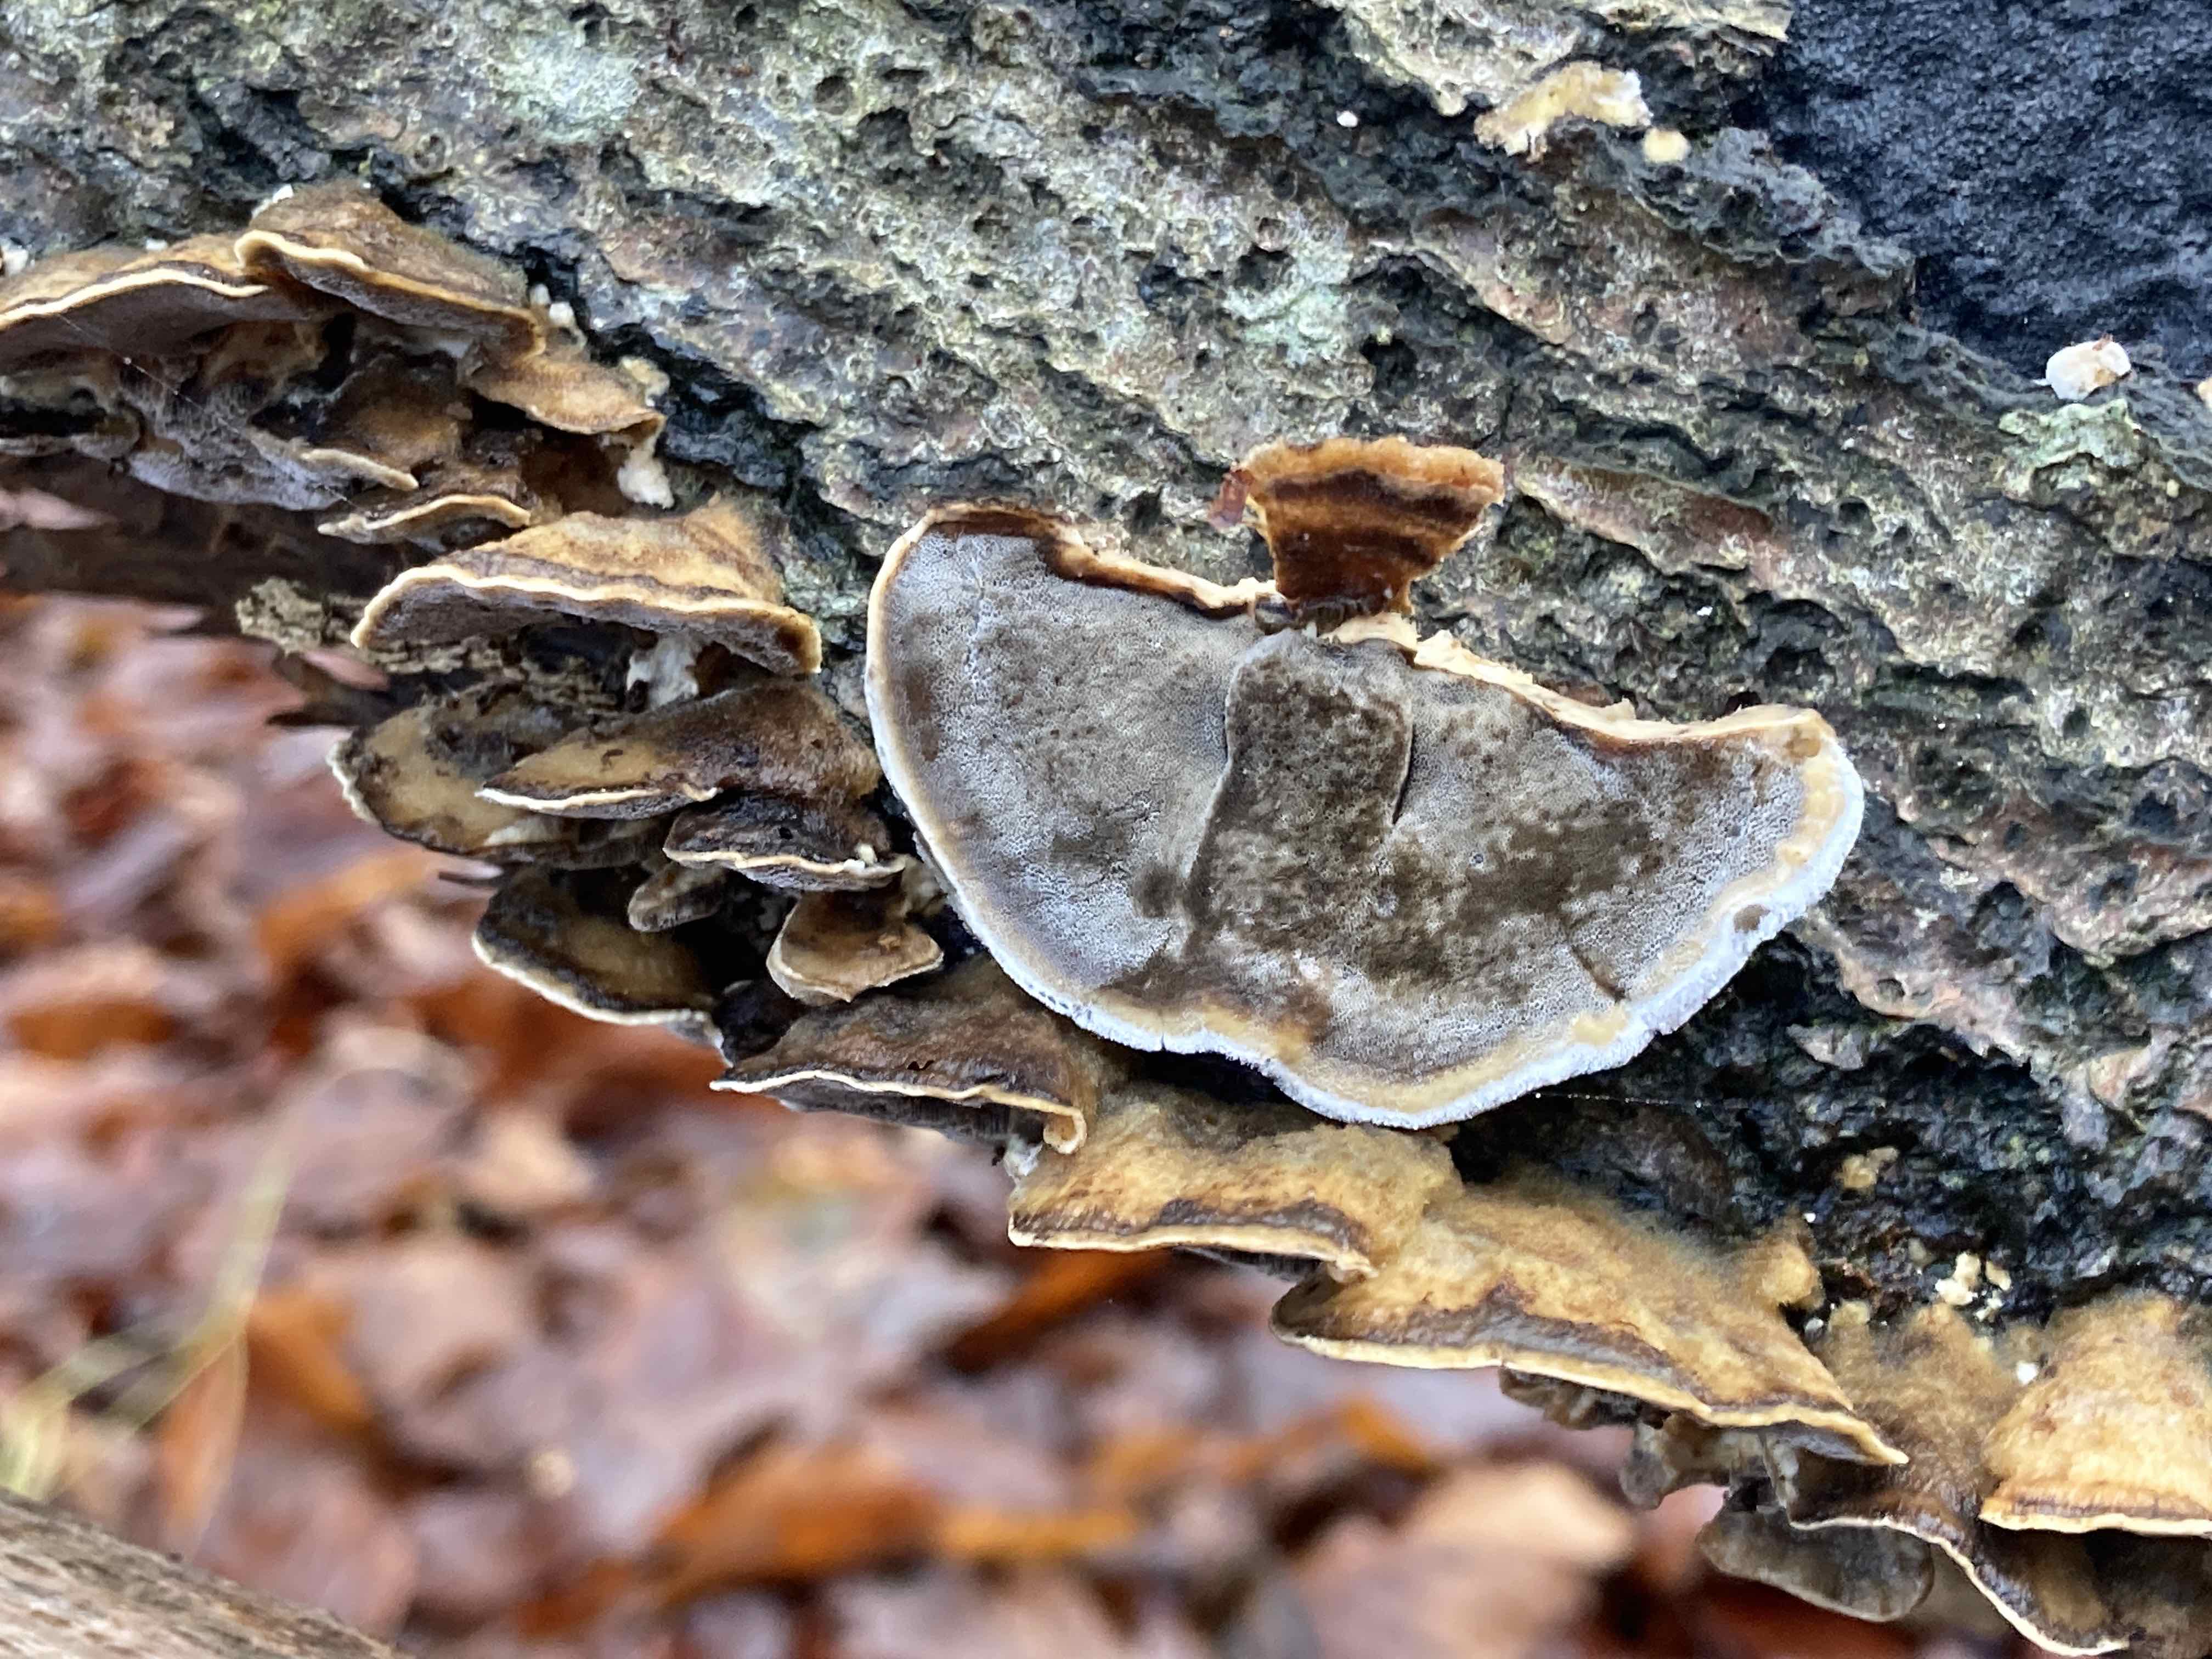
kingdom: Fungi
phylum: Basidiomycota
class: Agaricomycetes
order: Polyporales
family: Phanerochaetaceae
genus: Bjerkandera
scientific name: Bjerkandera adusta
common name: sveden sodporesvamp
